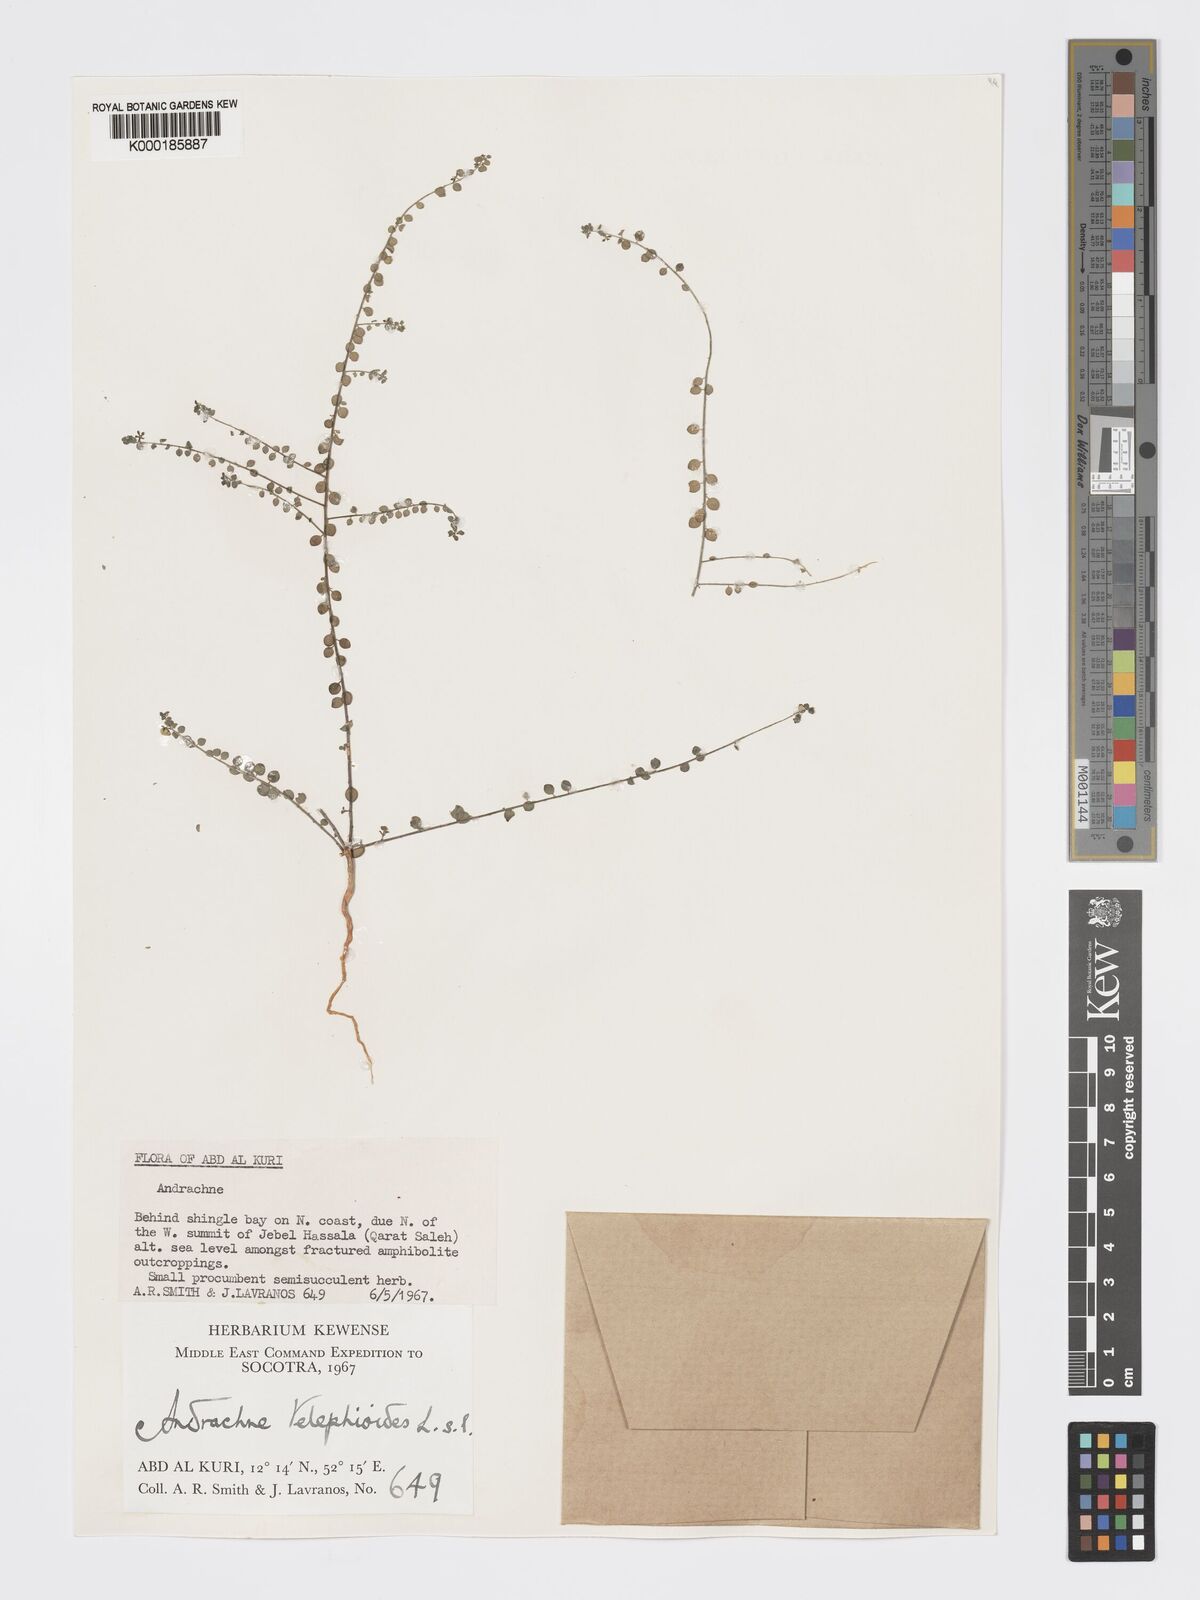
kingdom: Plantae
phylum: Tracheophyta
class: Magnoliopsida
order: Malpighiales
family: Phyllanthaceae
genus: Andrachne
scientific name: Andrachne telephioides
